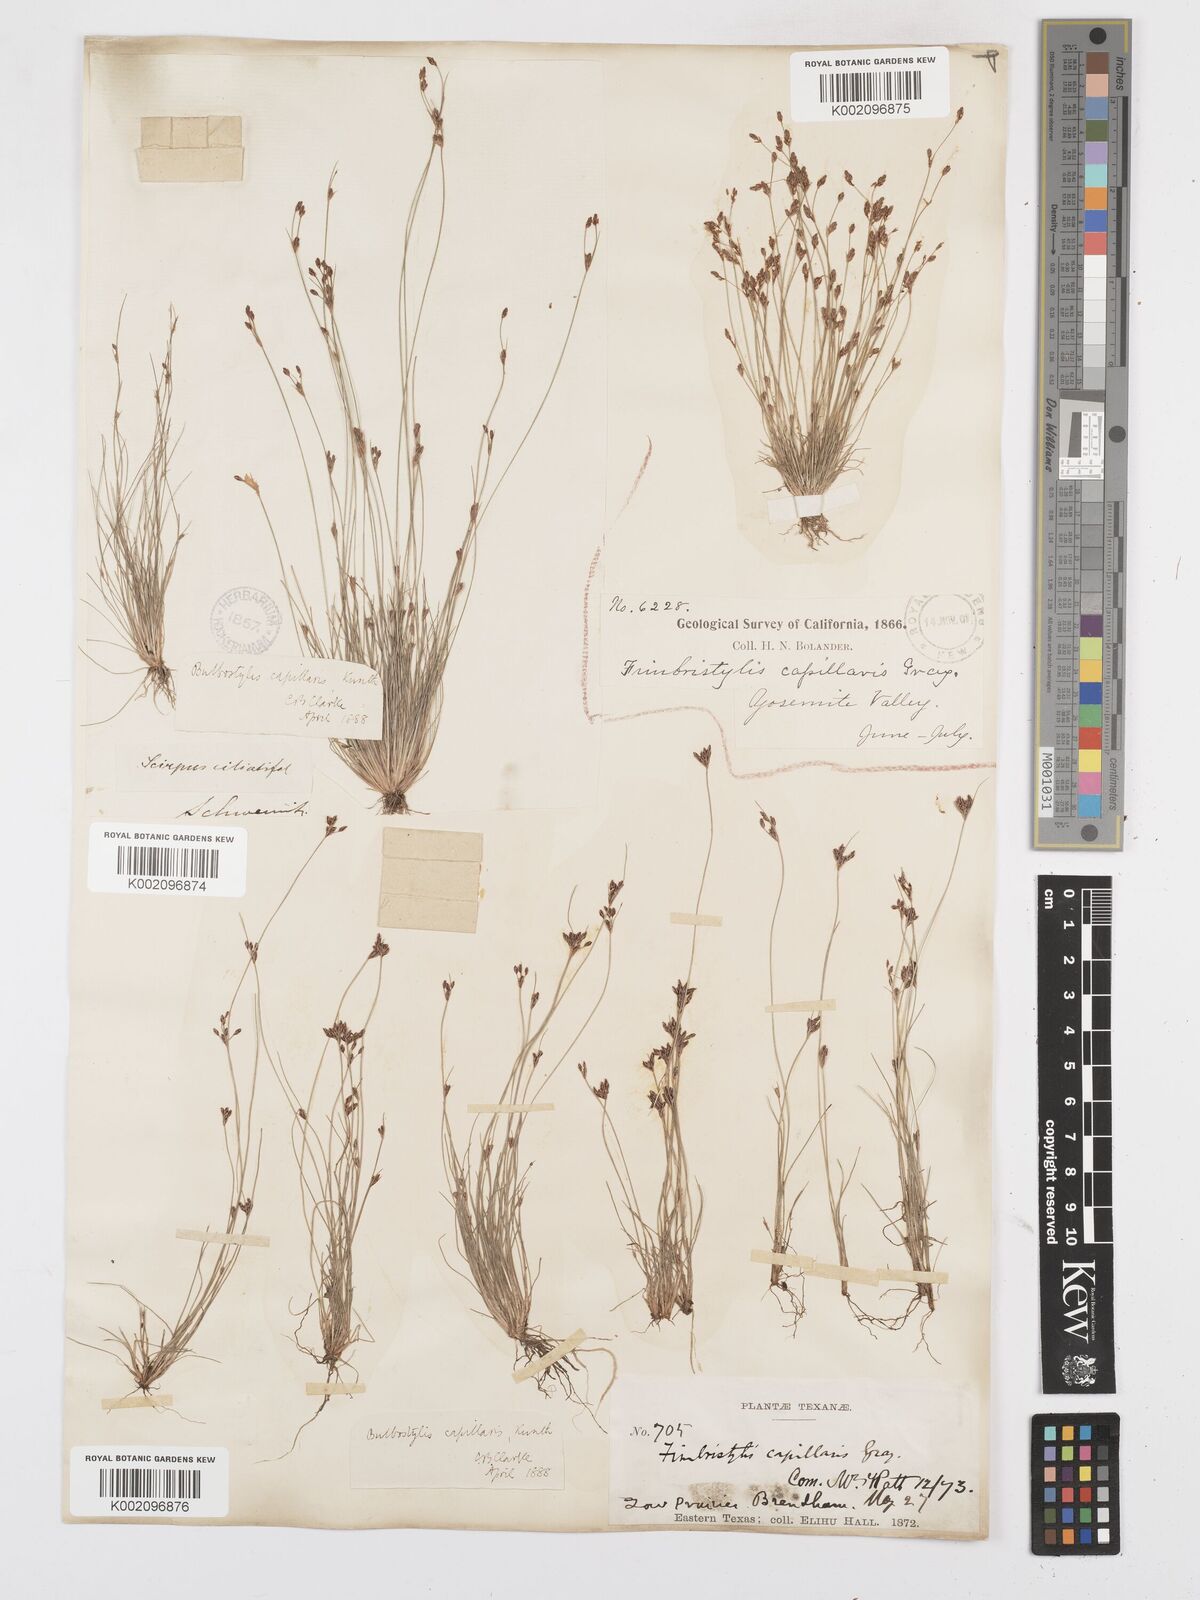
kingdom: Plantae
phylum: Tracheophyta
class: Liliopsida
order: Poales
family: Cyperaceae
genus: Bulbostylis
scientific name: Bulbostylis capillaris
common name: Densetuft hairsedge
